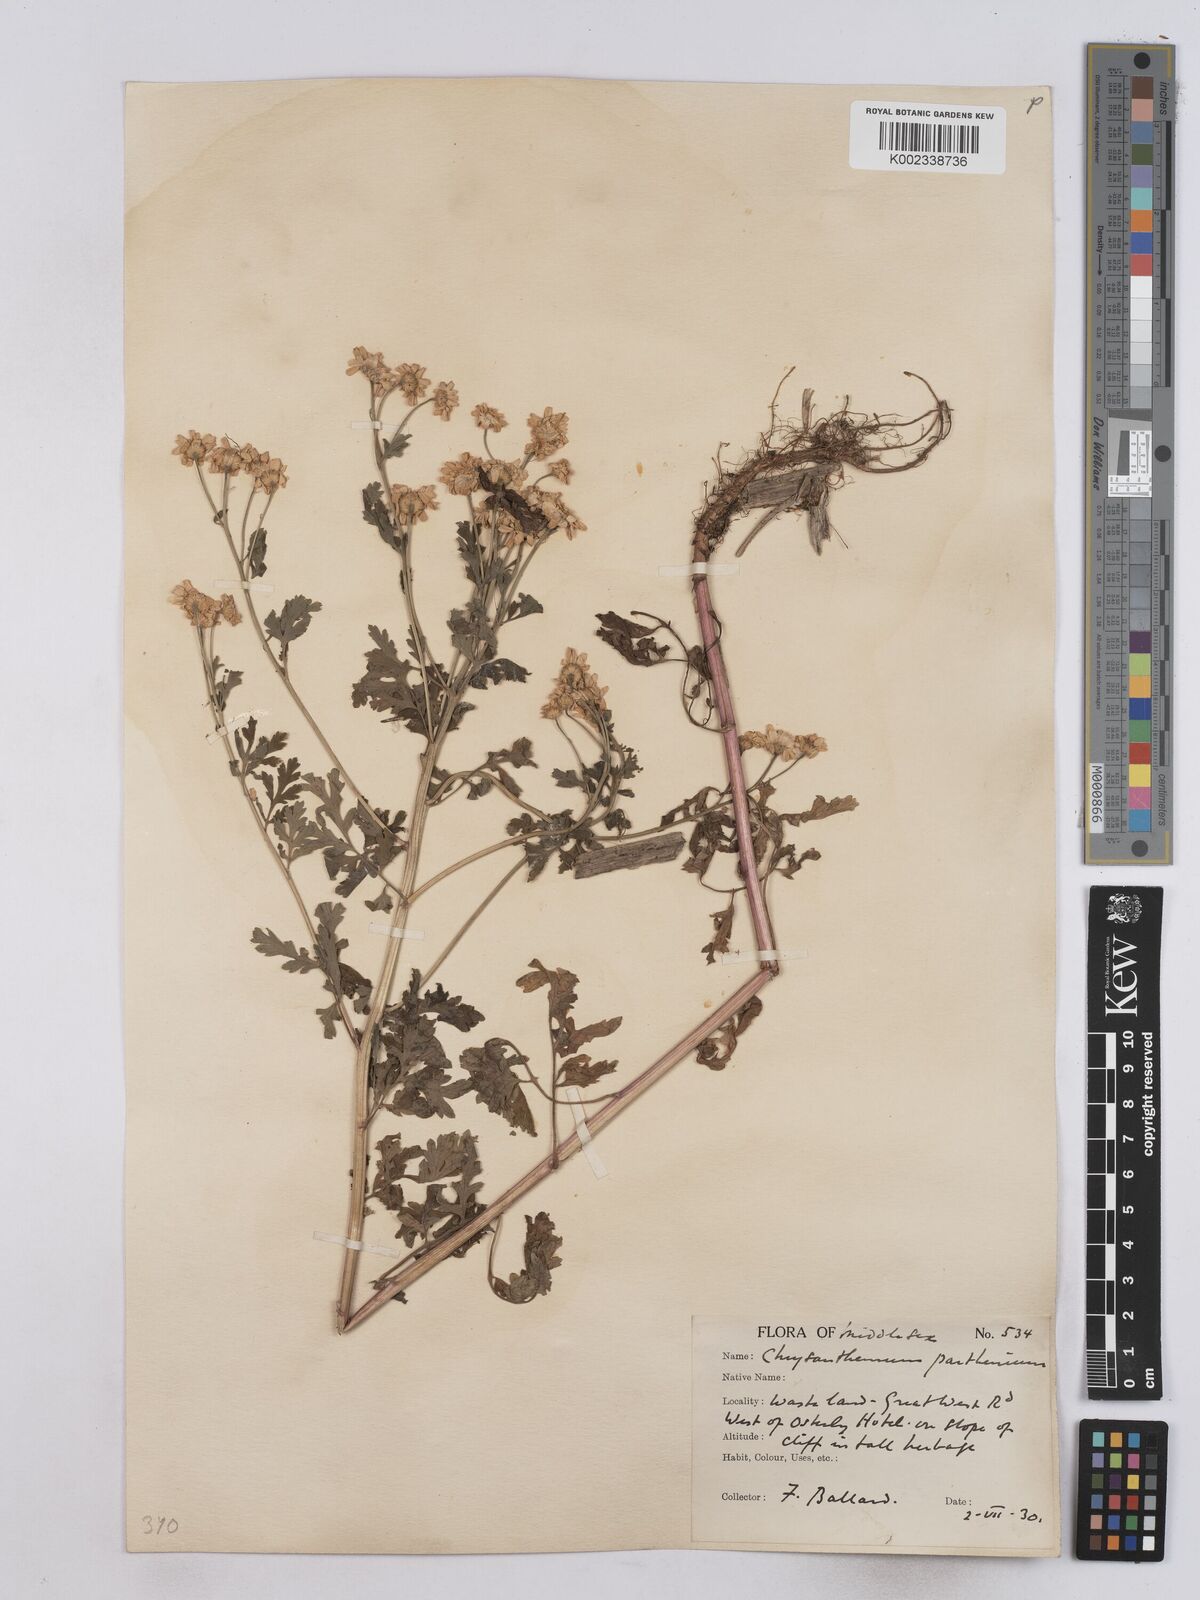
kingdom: Plantae
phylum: Tracheophyta
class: Magnoliopsida
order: Asterales
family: Asteraceae
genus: Tanacetum
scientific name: Tanacetum parthenium
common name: Feverfew
